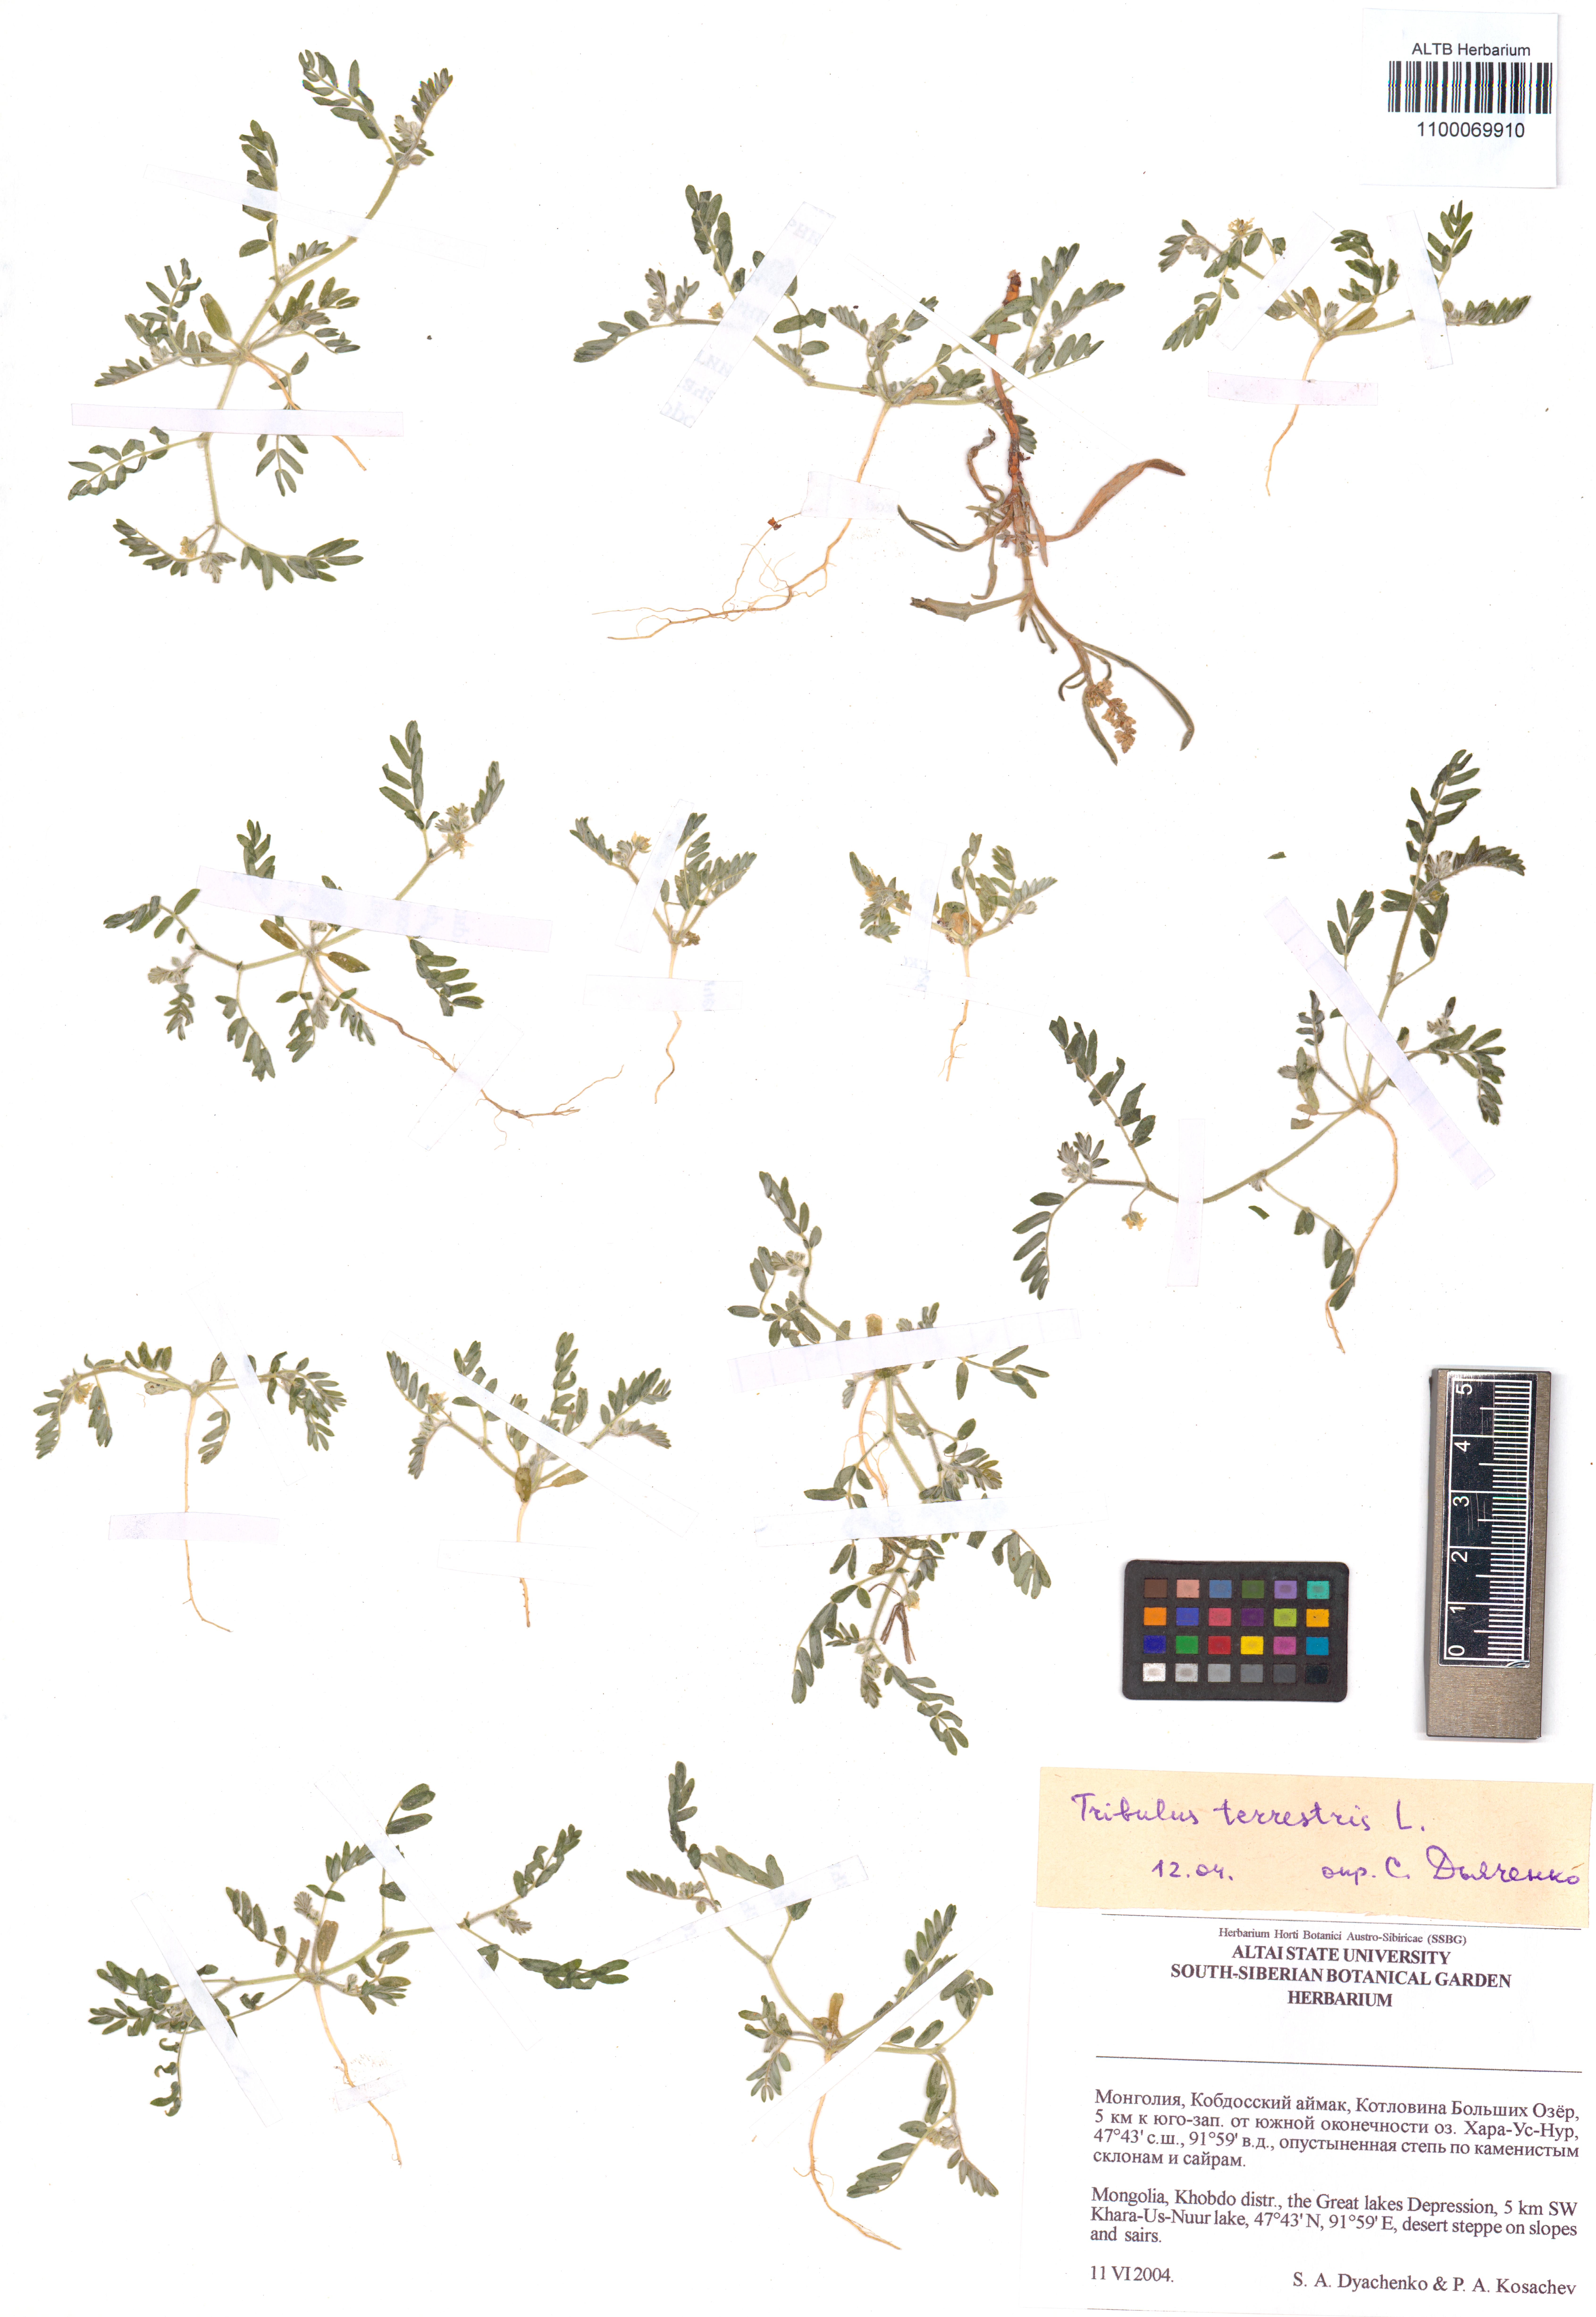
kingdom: Plantae
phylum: Tracheophyta
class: Magnoliopsida
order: Zygophyllales
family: Zygophyllaceae
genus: Tribulus
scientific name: Tribulus terrestris
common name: Puncturevine
